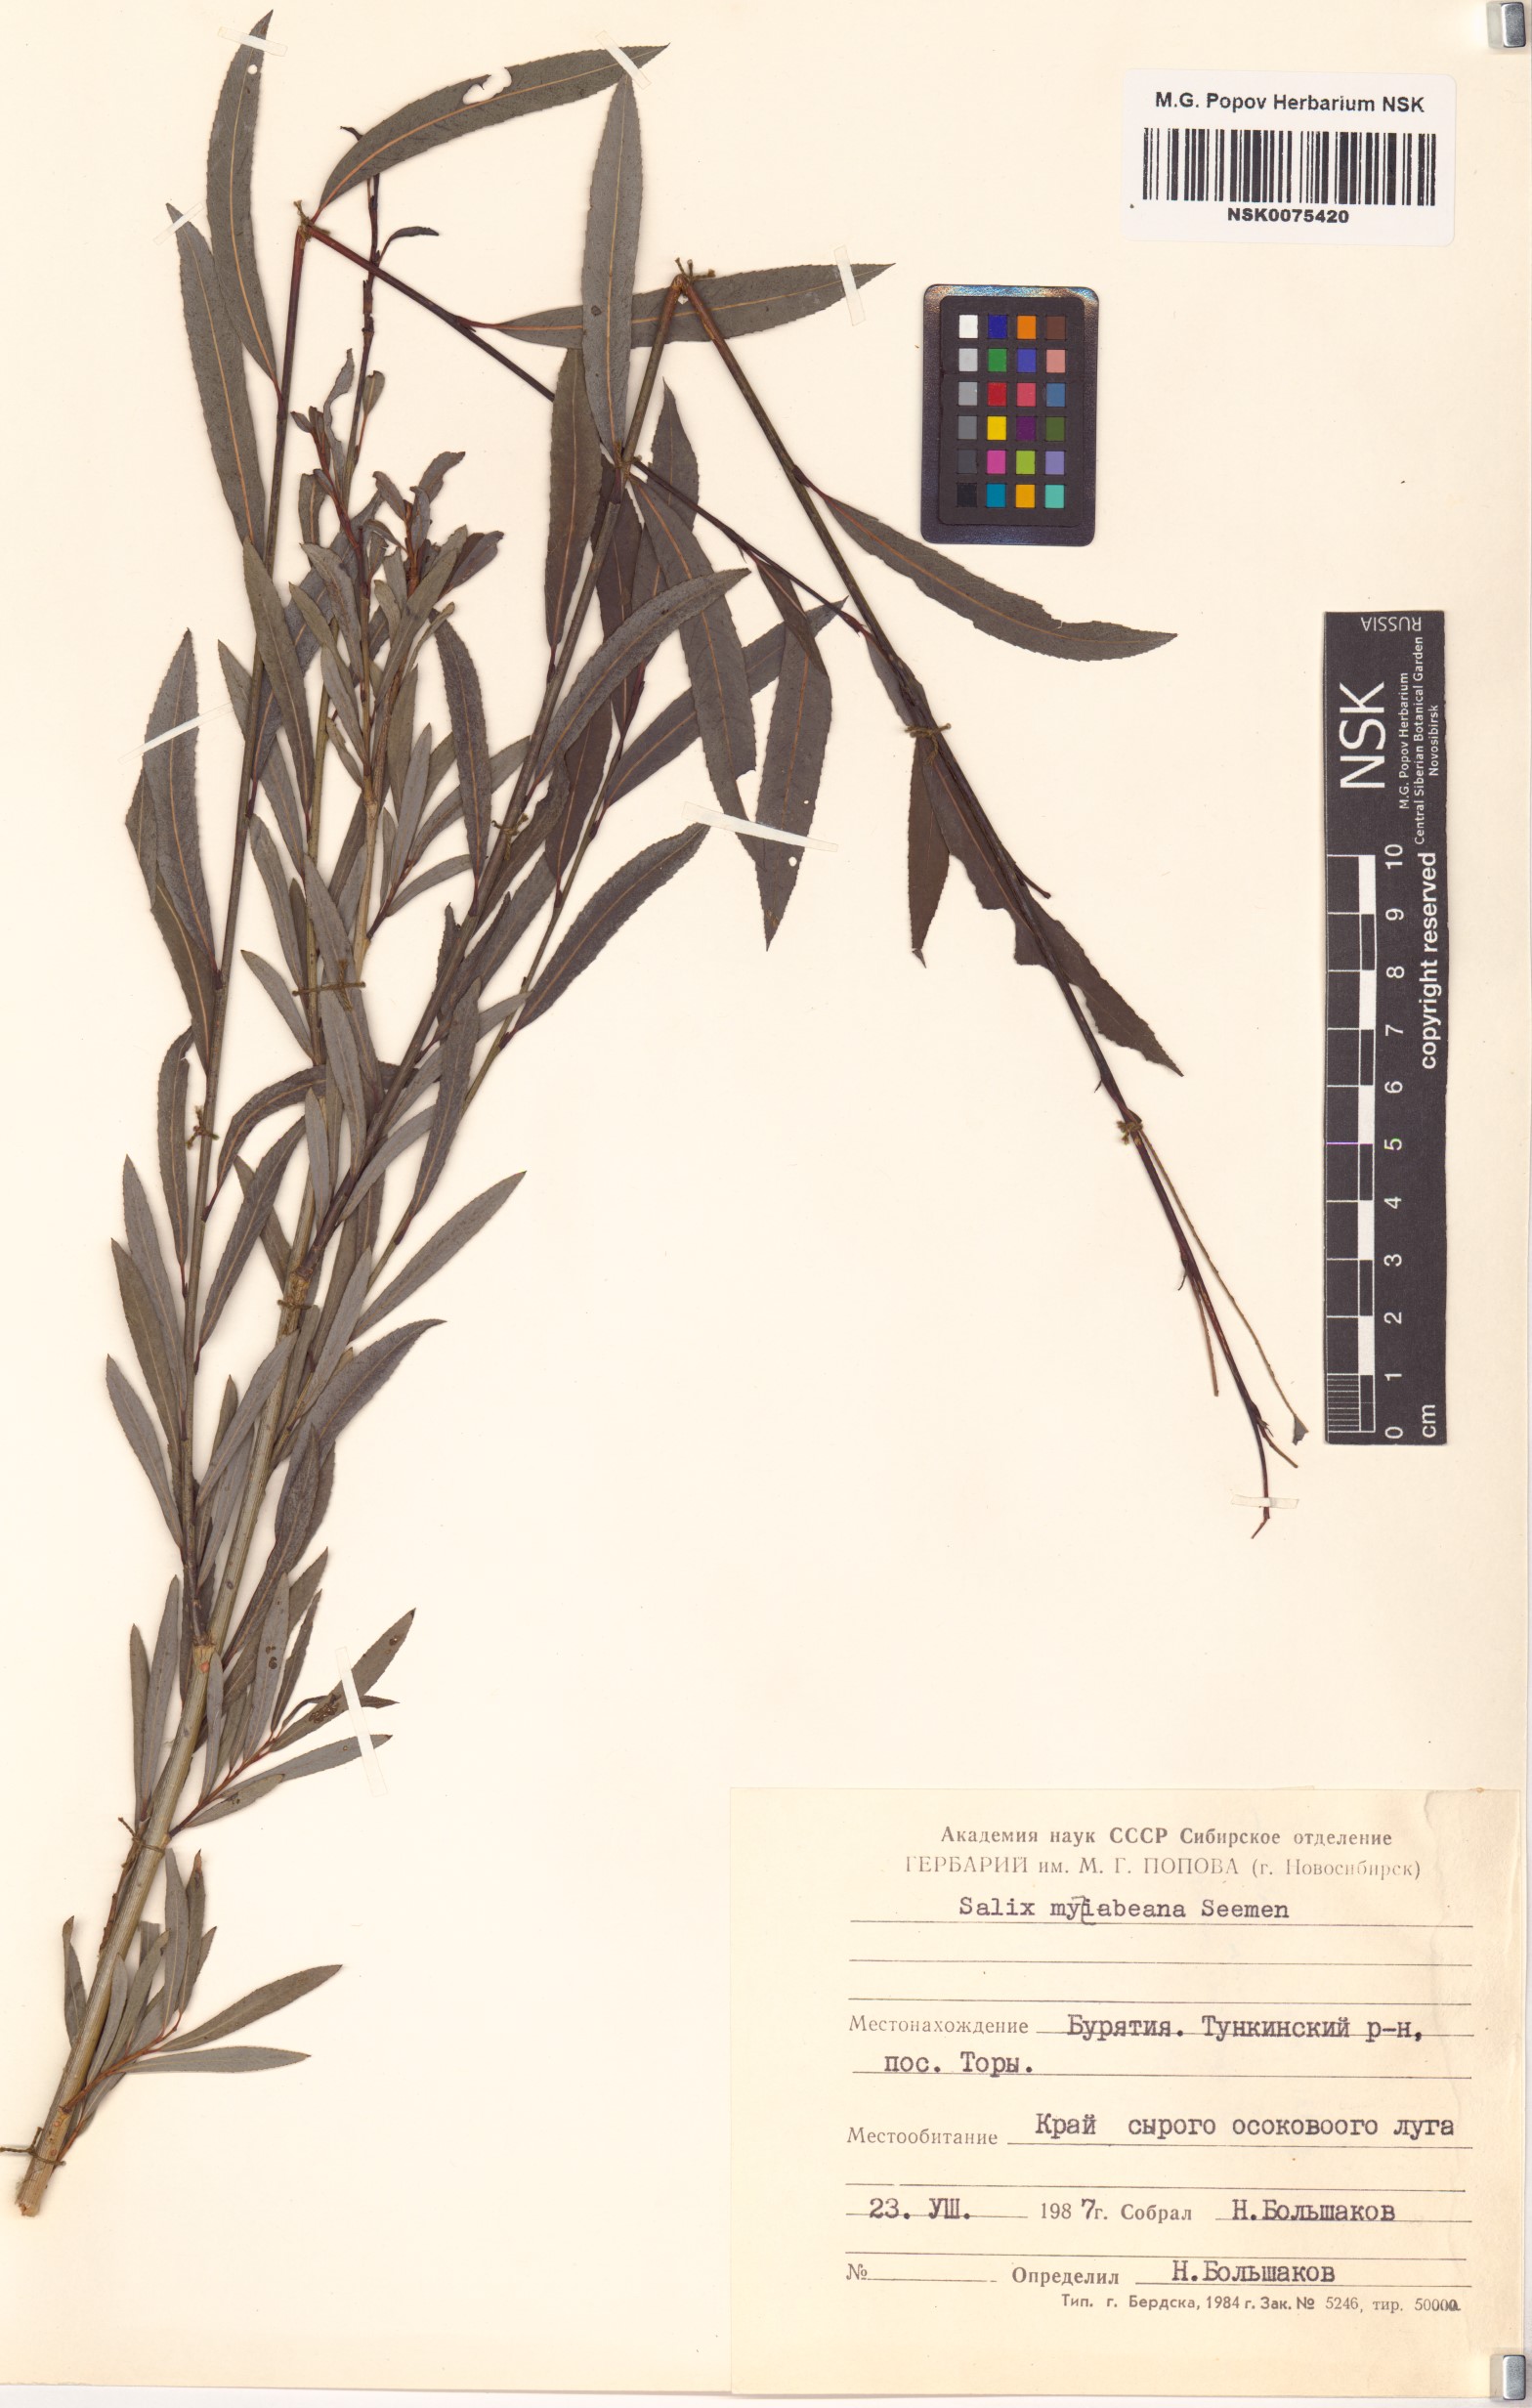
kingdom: Plantae
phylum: Tracheophyta
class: Magnoliopsida
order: Malpighiales
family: Salicaceae
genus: Salix
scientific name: Salix miyabeana
